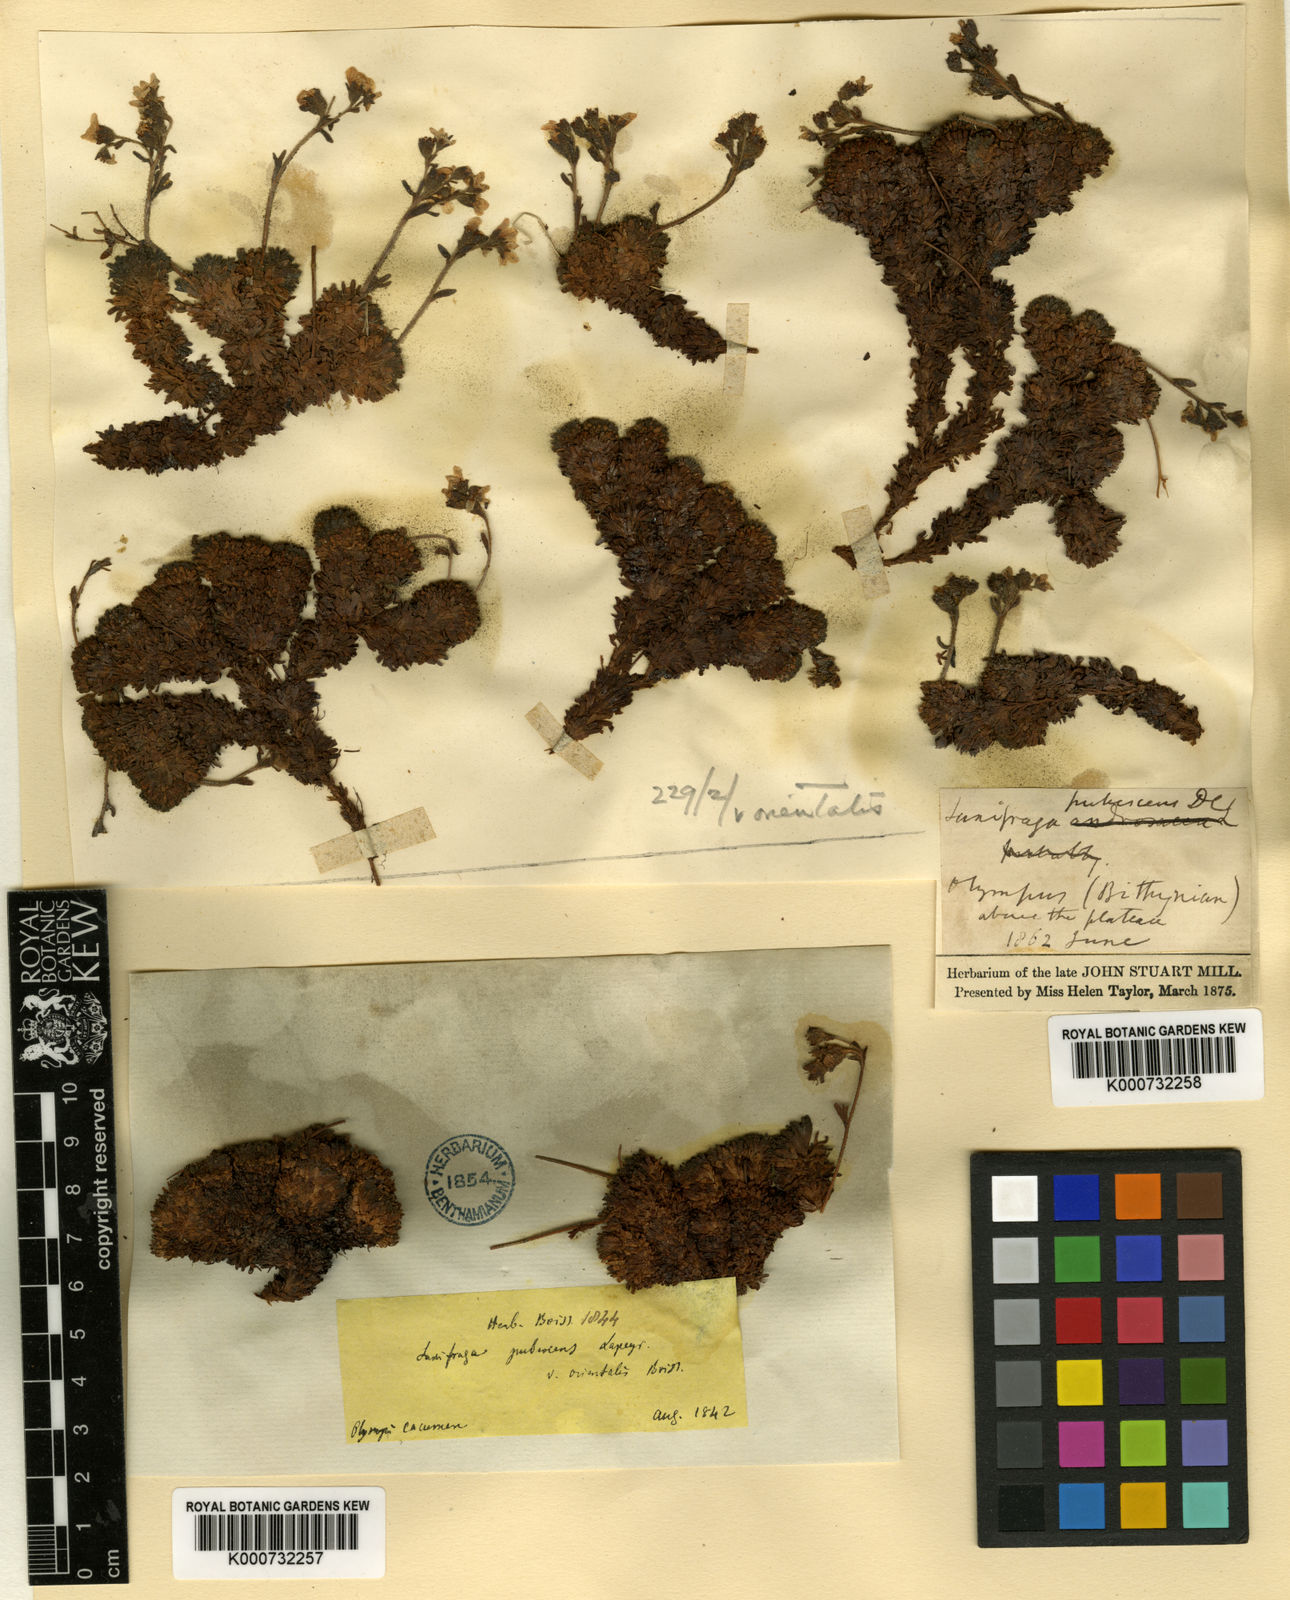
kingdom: Plantae
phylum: Tracheophyta
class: Magnoliopsida
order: Saxifragales
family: Saxifragaceae
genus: Saxifraga
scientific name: Saxifraga
